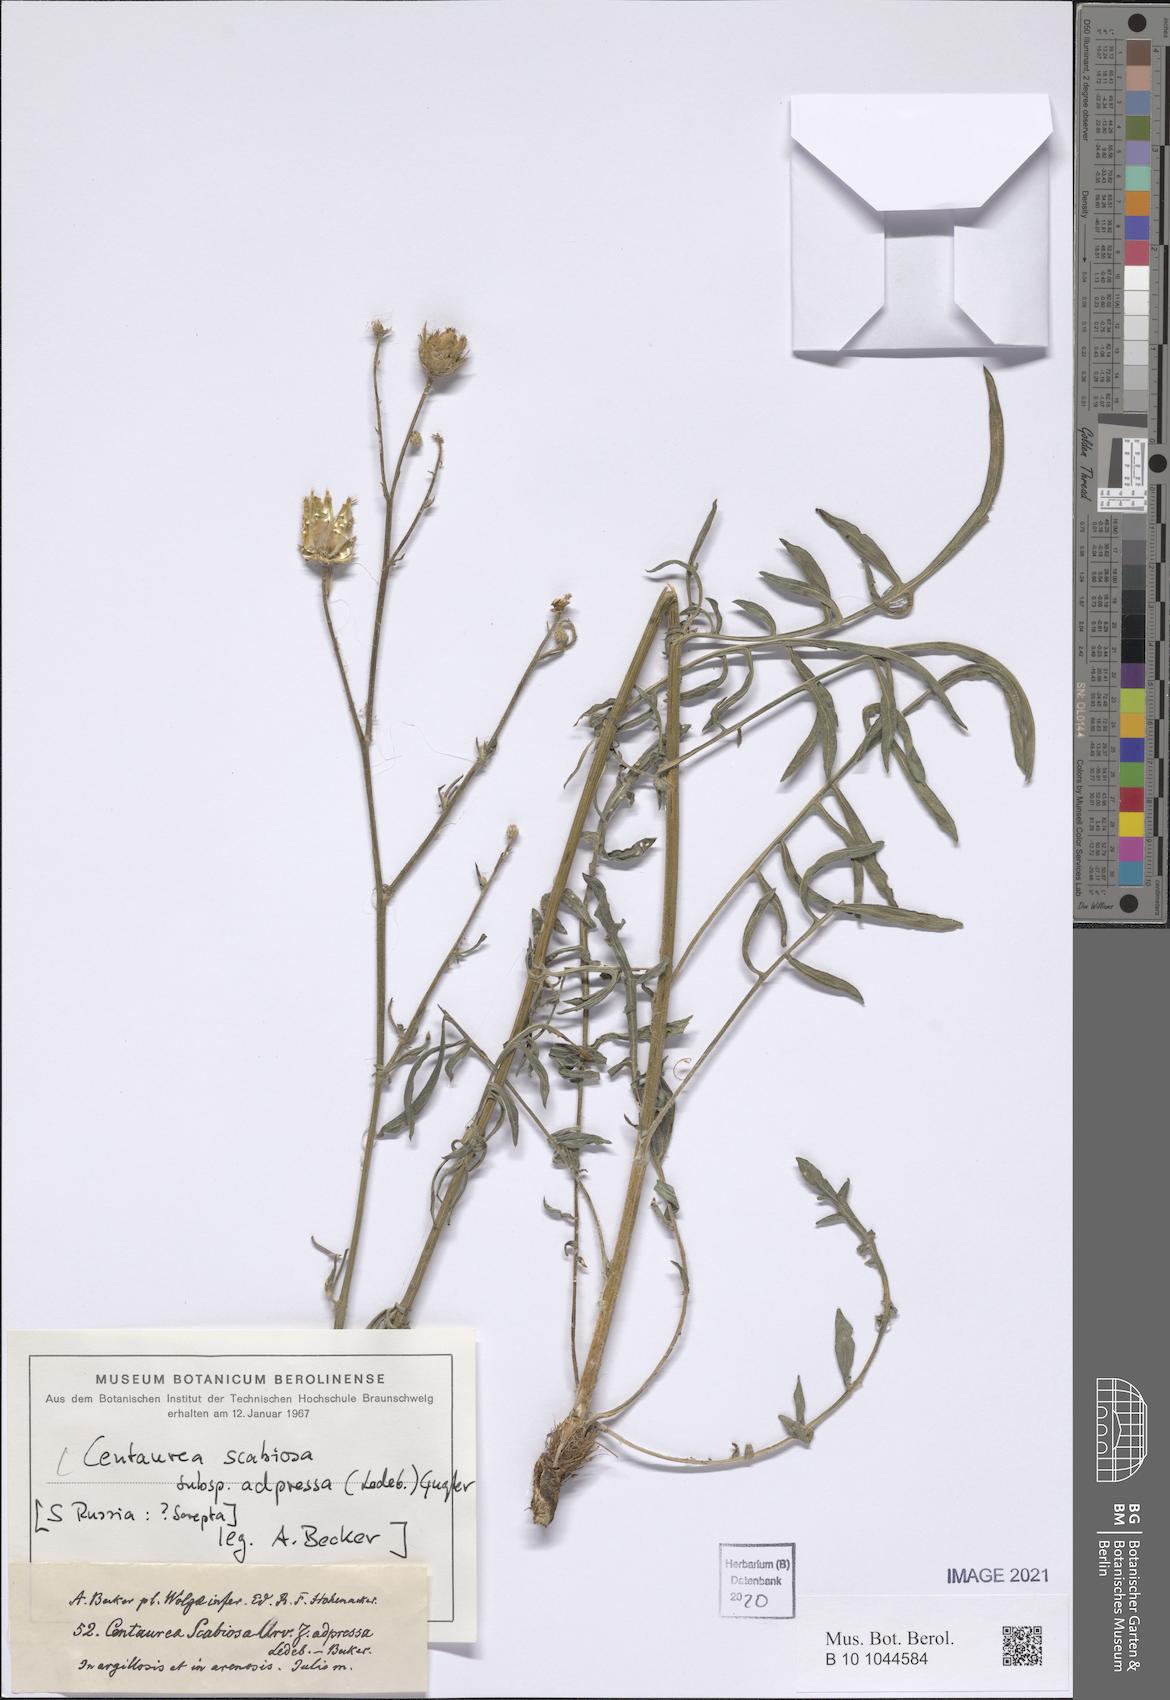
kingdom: Plantae
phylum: Tracheophyta
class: Magnoliopsida
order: Asterales
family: Asteraceae
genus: Centaurea
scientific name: Centaurea adpressa
